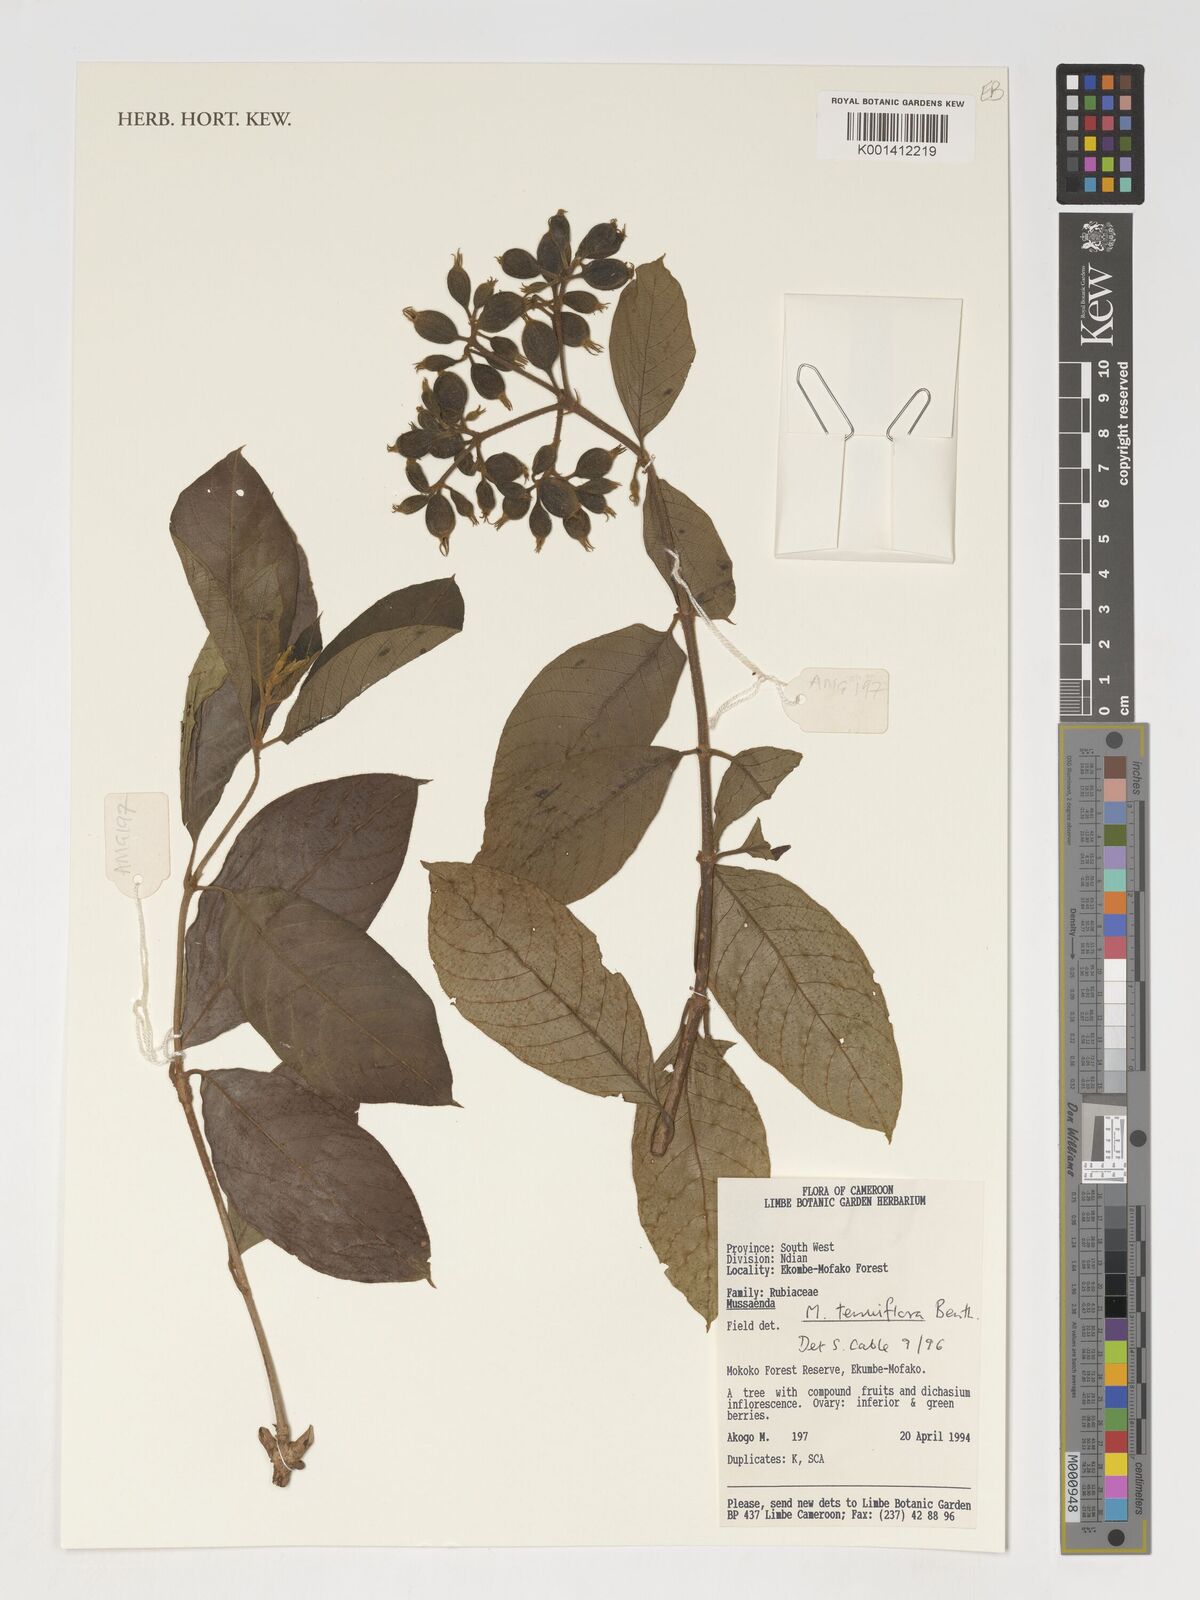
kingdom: Plantae
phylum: Tracheophyta
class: Magnoliopsida
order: Gentianales
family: Rubiaceae
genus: Mussaenda
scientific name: Mussaenda tenuiflora
